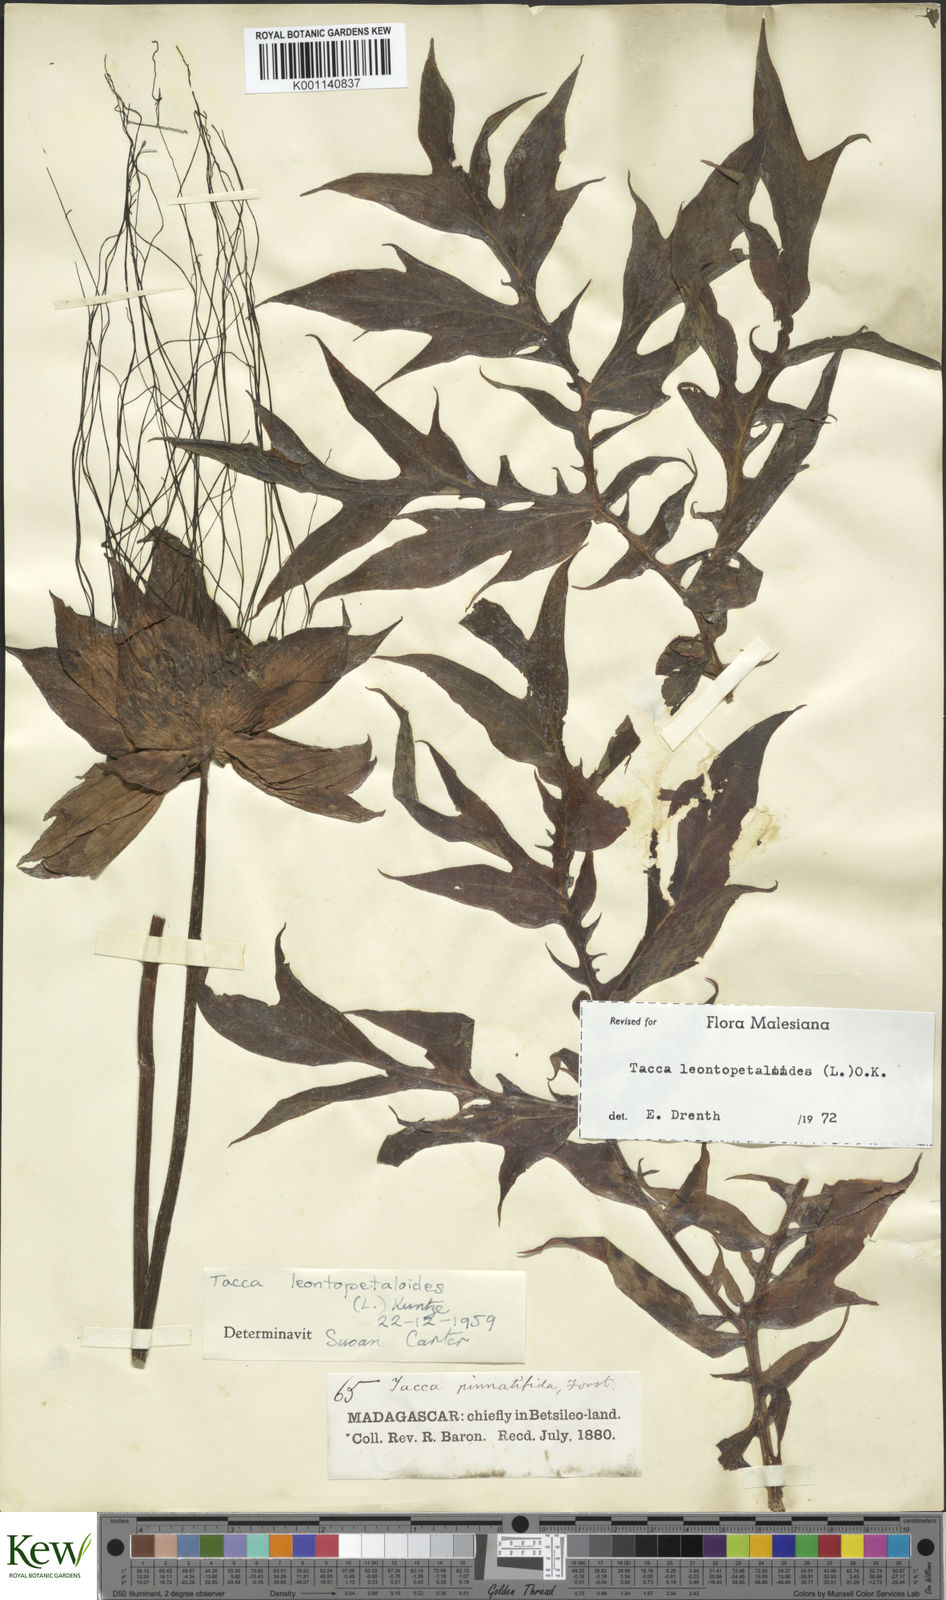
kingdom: Plantae
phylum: Tracheophyta
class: Liliopsida
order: Dioscoreales
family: Dioscoreaceae
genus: Tacca
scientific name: Tacca leontopetaloides
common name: Arrowroot
